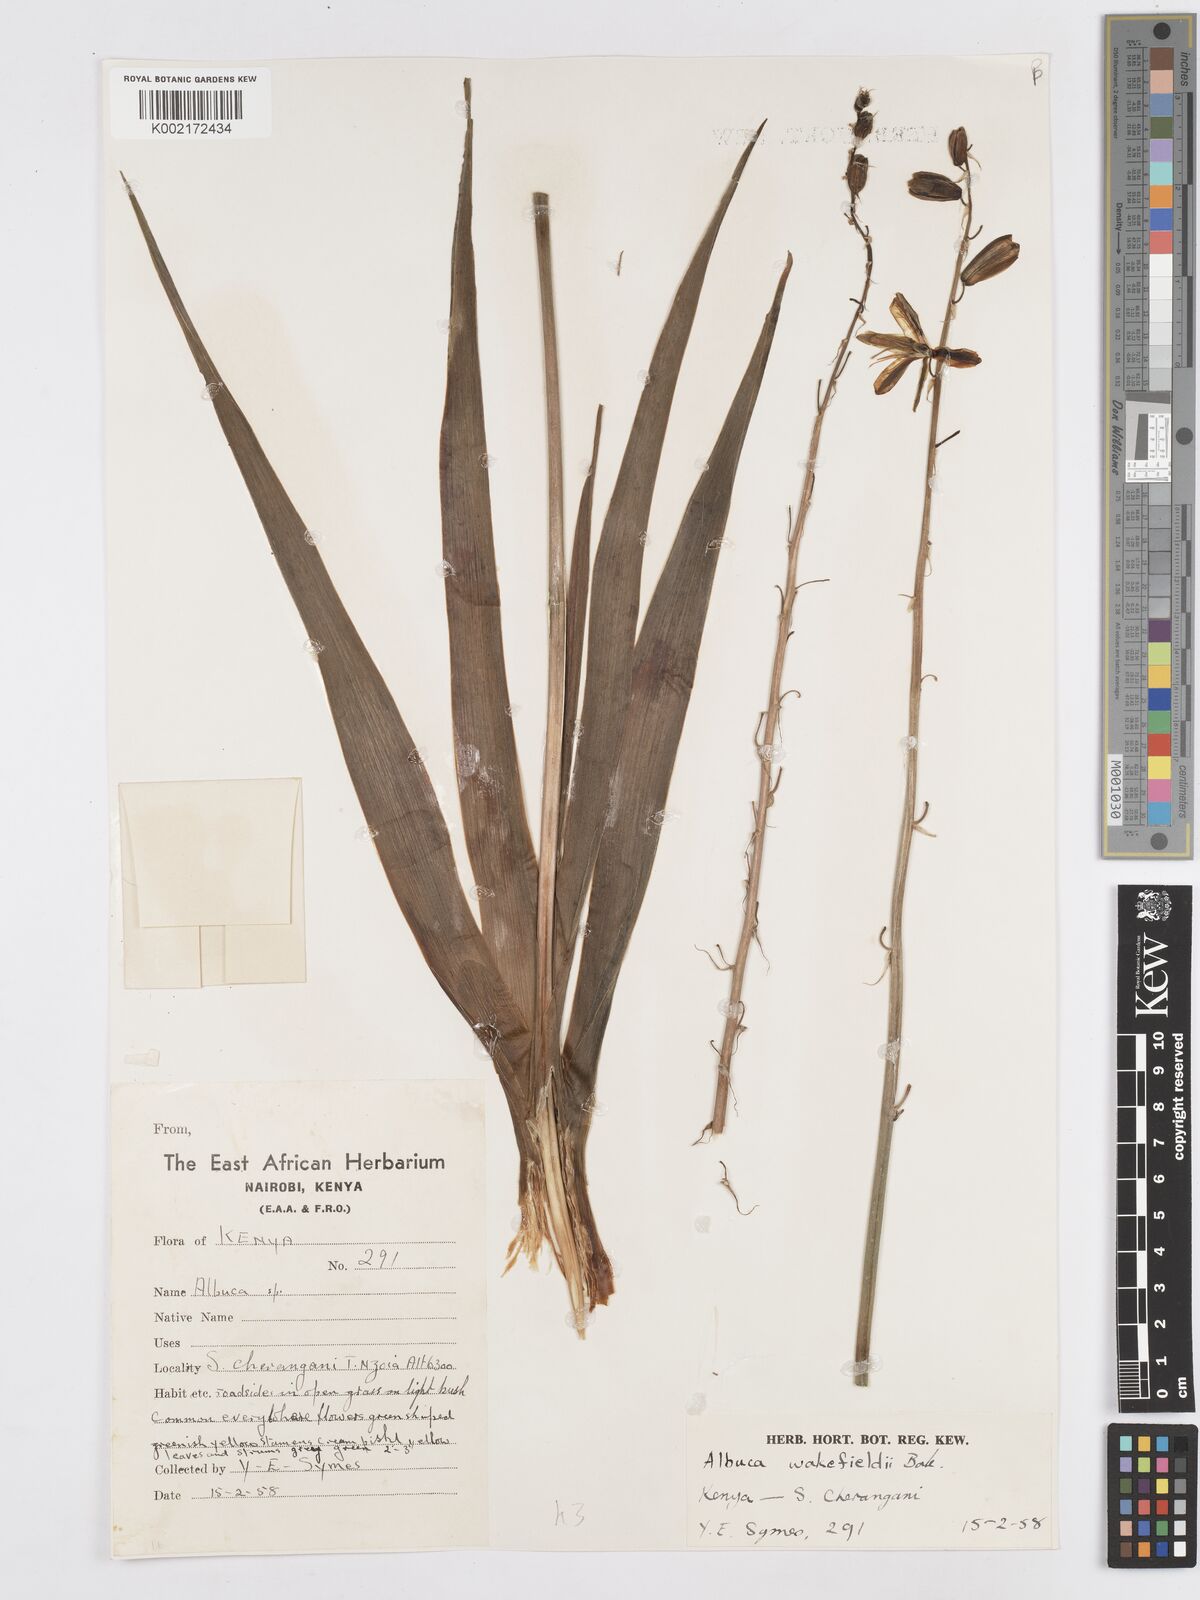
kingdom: Plantae
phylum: Tracheophyta
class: Liliopsida
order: Asparagales
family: Asparagaceae
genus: Albuca
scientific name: Albuca abyssinica
